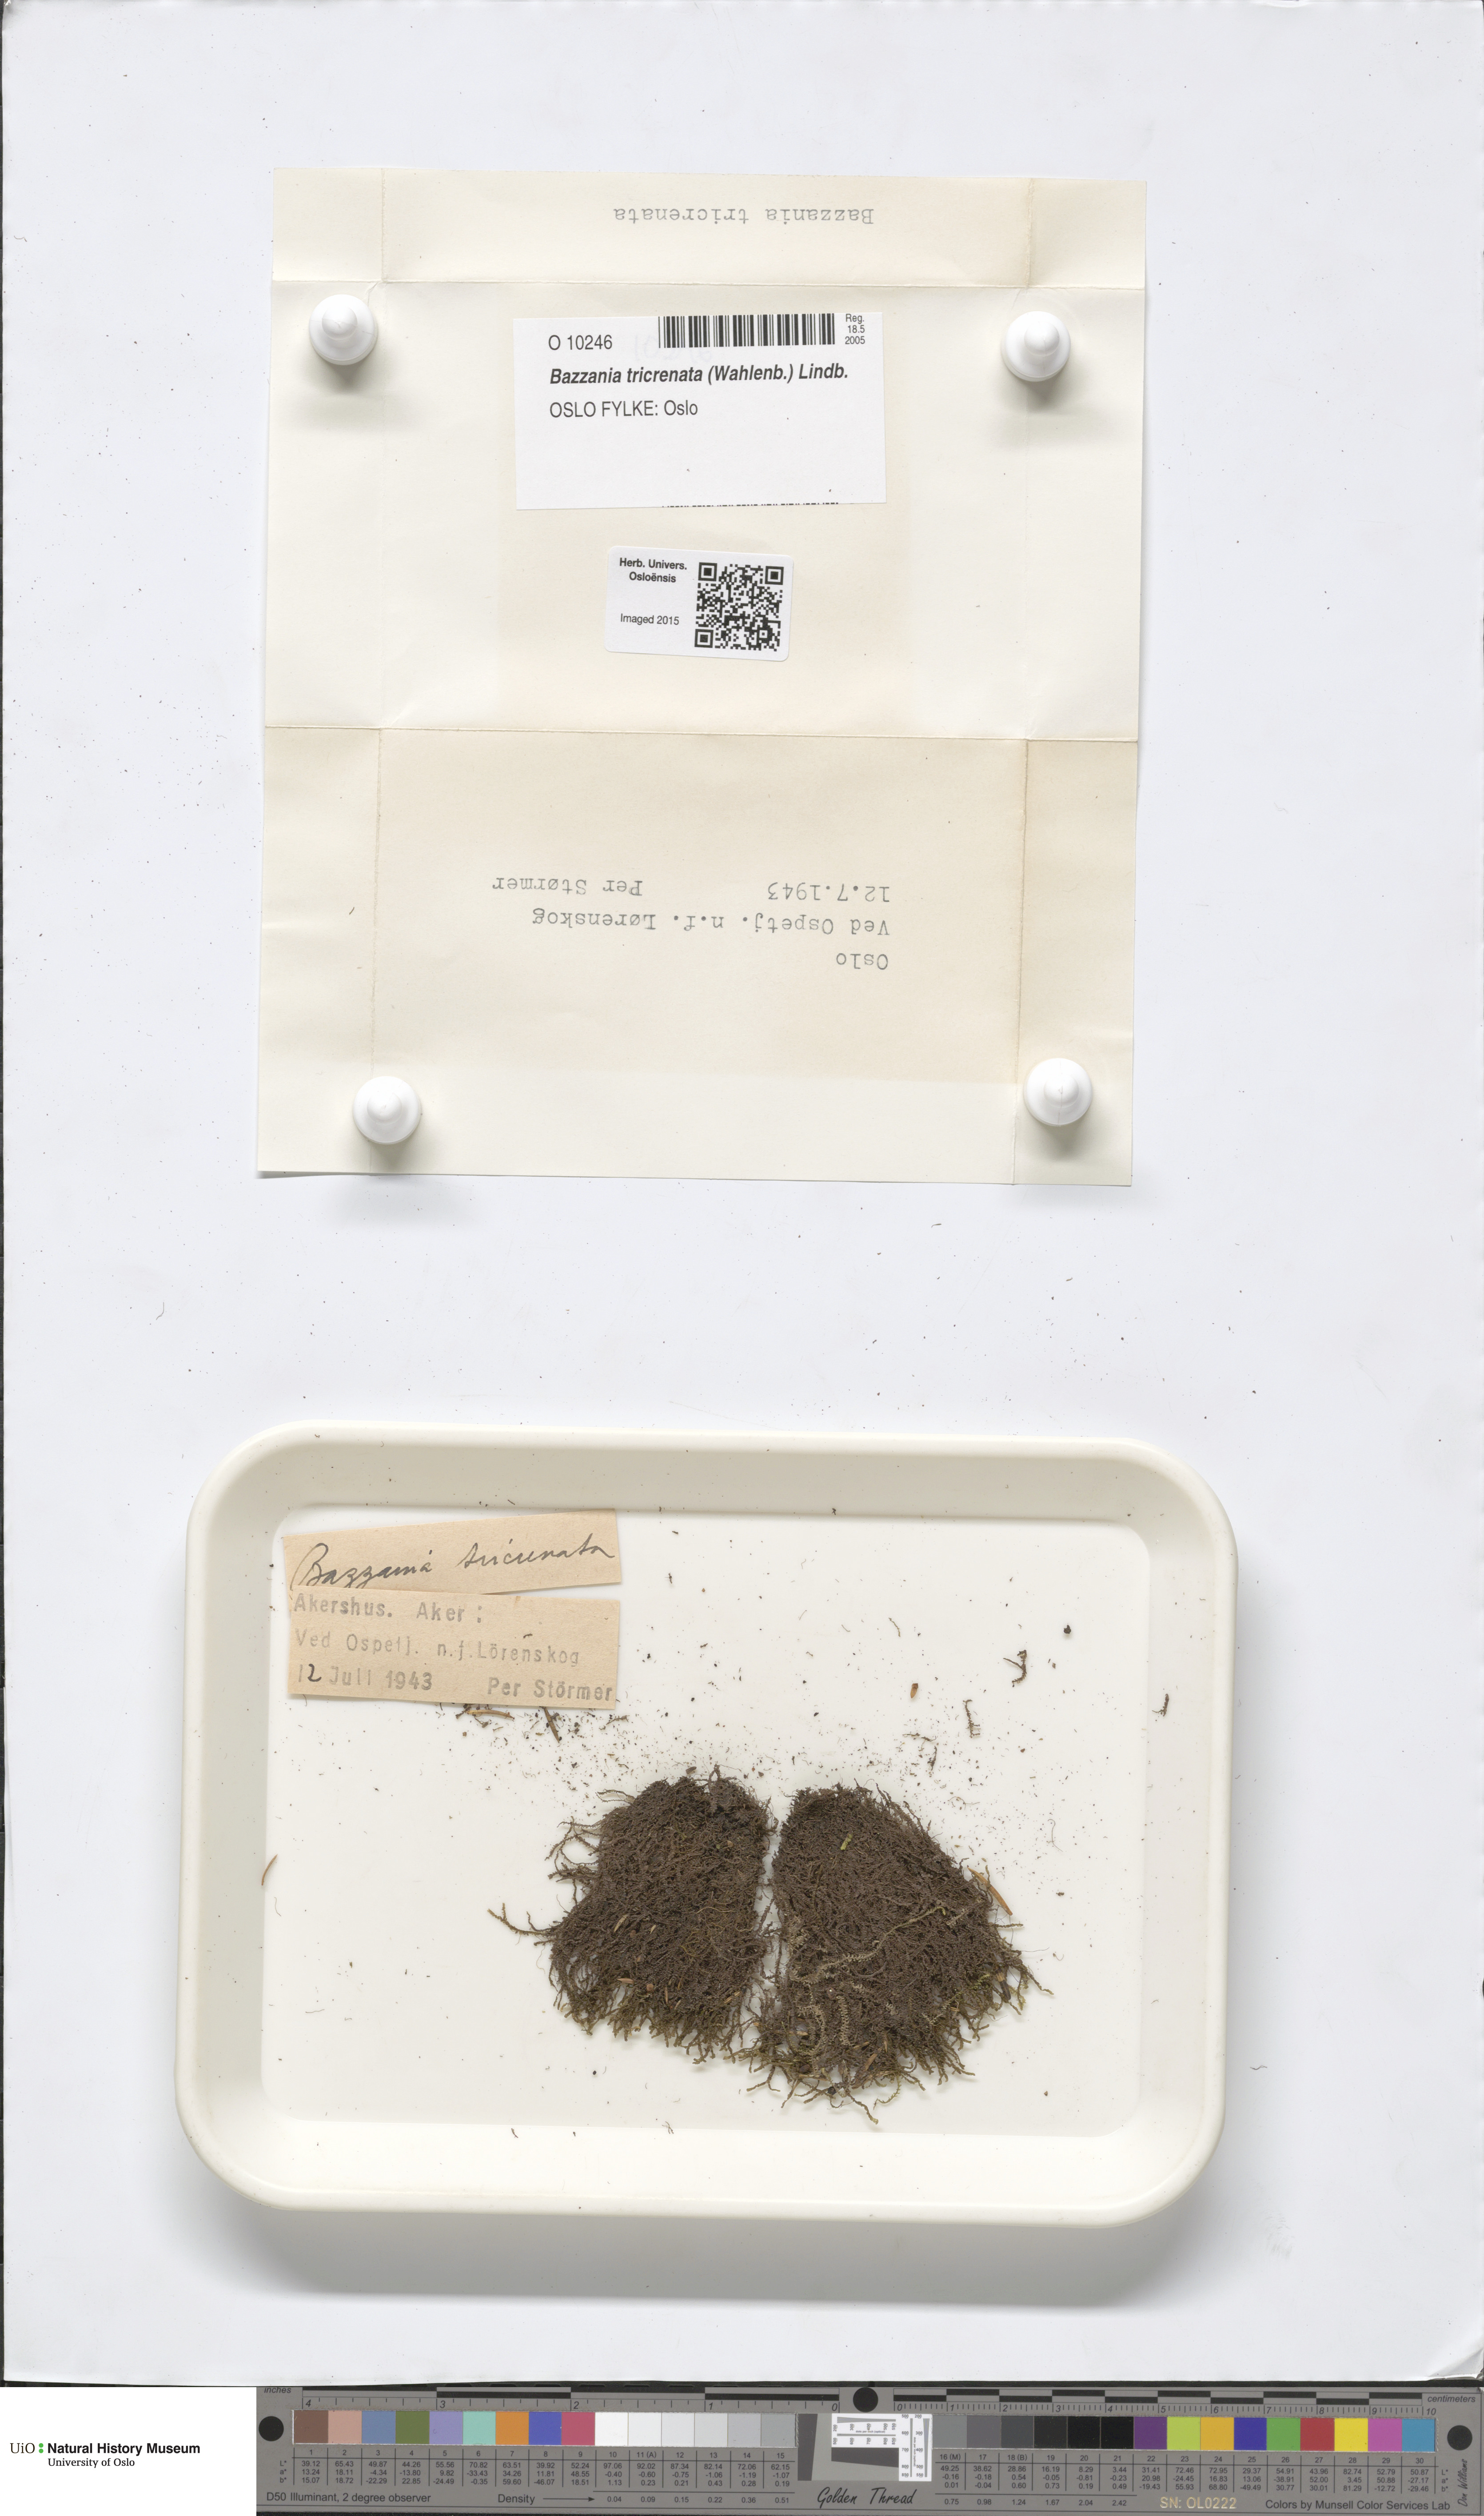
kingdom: Plantae
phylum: Marchantiophyta
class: Jungermanniopsida
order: Jungermanniales
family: Lepidoziaceae
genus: Bazzania
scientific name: Bazzania tricrenata
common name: Lesser whipwort
